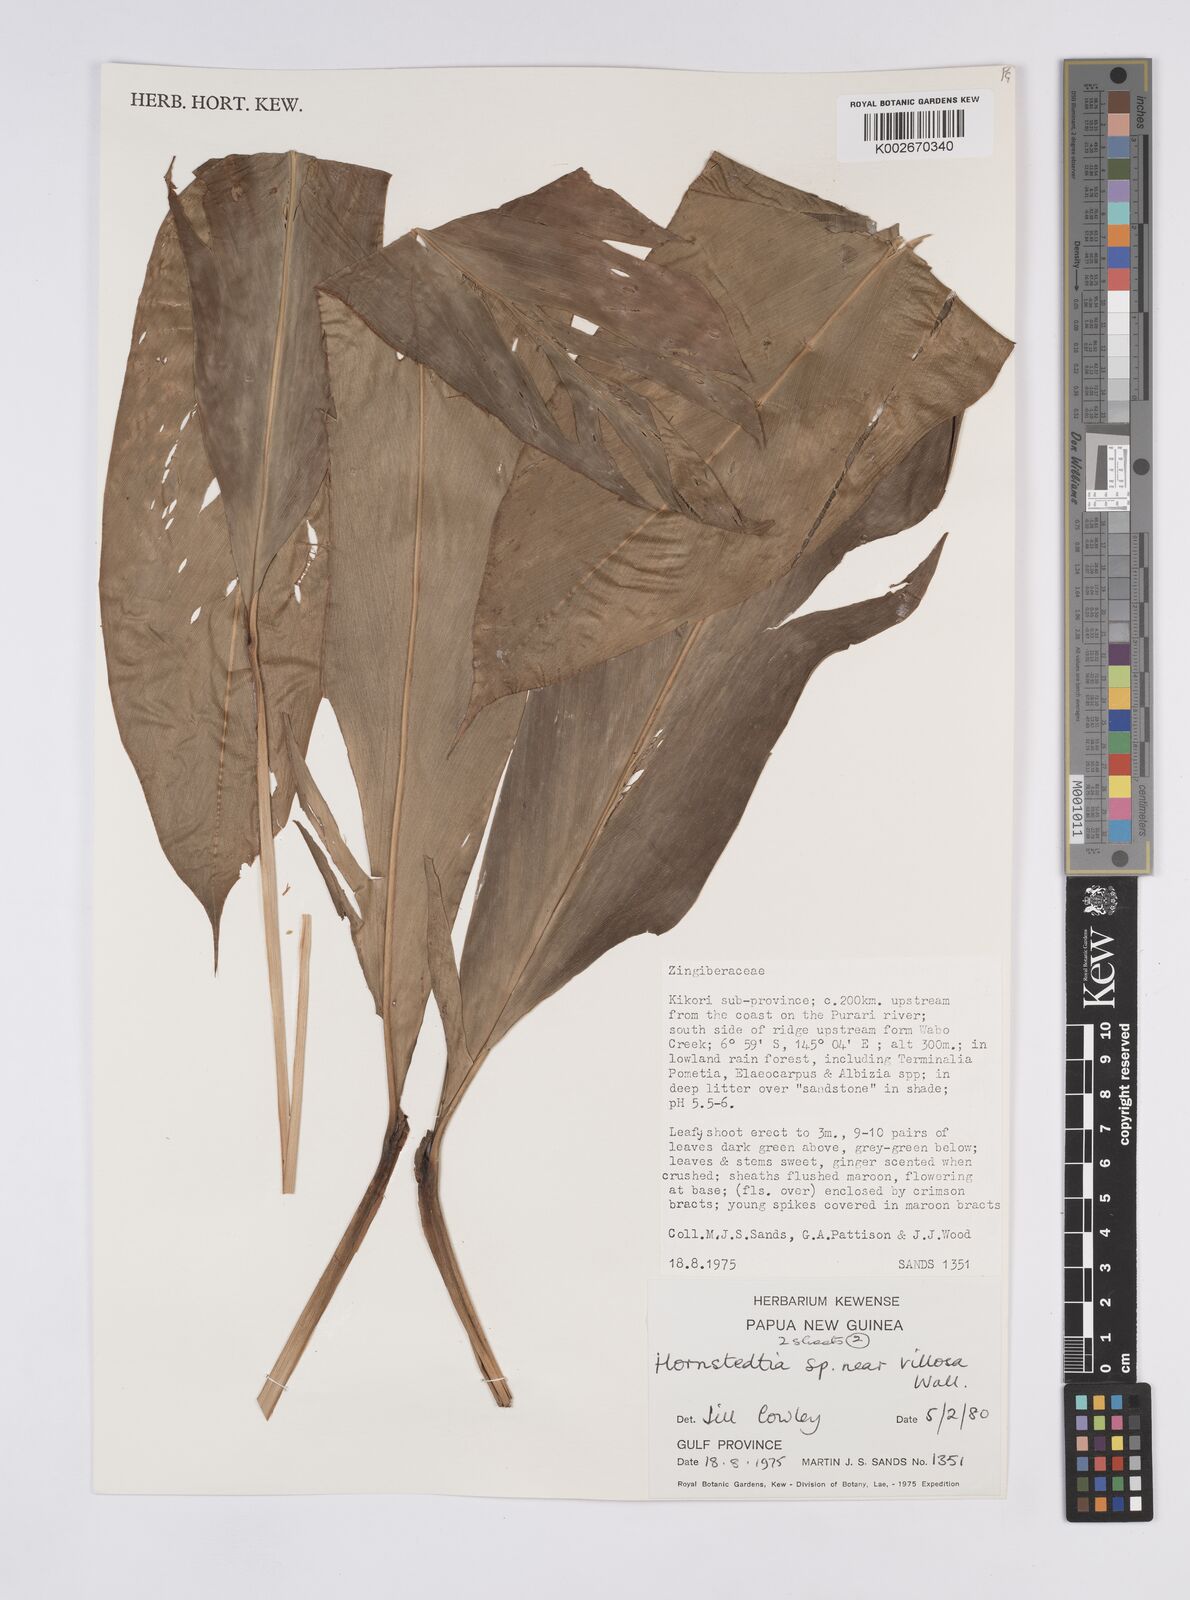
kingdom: Plantae
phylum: Tracheophyta
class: Liliopsida
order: Zingiberales
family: Zingiberaceae
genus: Hornstedtia
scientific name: Hornstedtia
